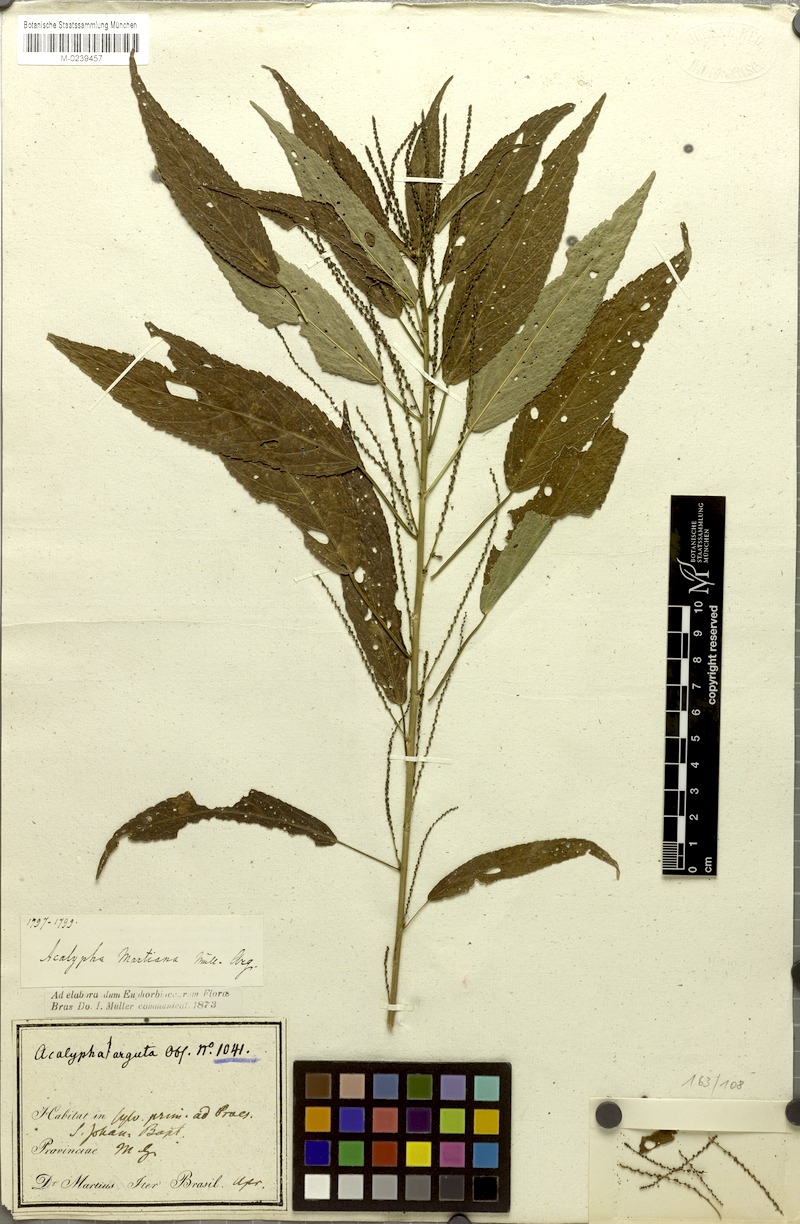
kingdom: Plantae
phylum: Tracheophyta
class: Magnoliopsida
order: Malpighiales
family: Euphorbiaceae
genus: Acalypha
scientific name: Acalypha martiana
